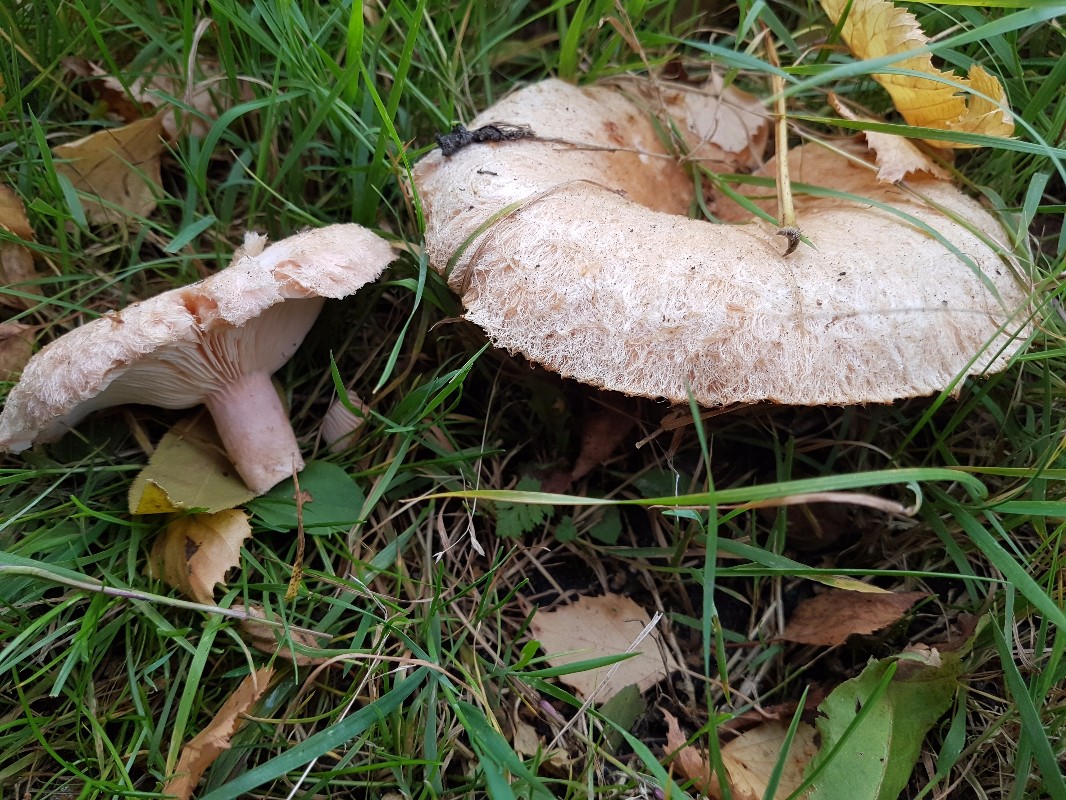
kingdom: Fungi
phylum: Basidiomycota
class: Agaricomycetes
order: Russulales
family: Russulaceae
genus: Lactarius
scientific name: Lactarius pubescens
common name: dunet mælkehat
